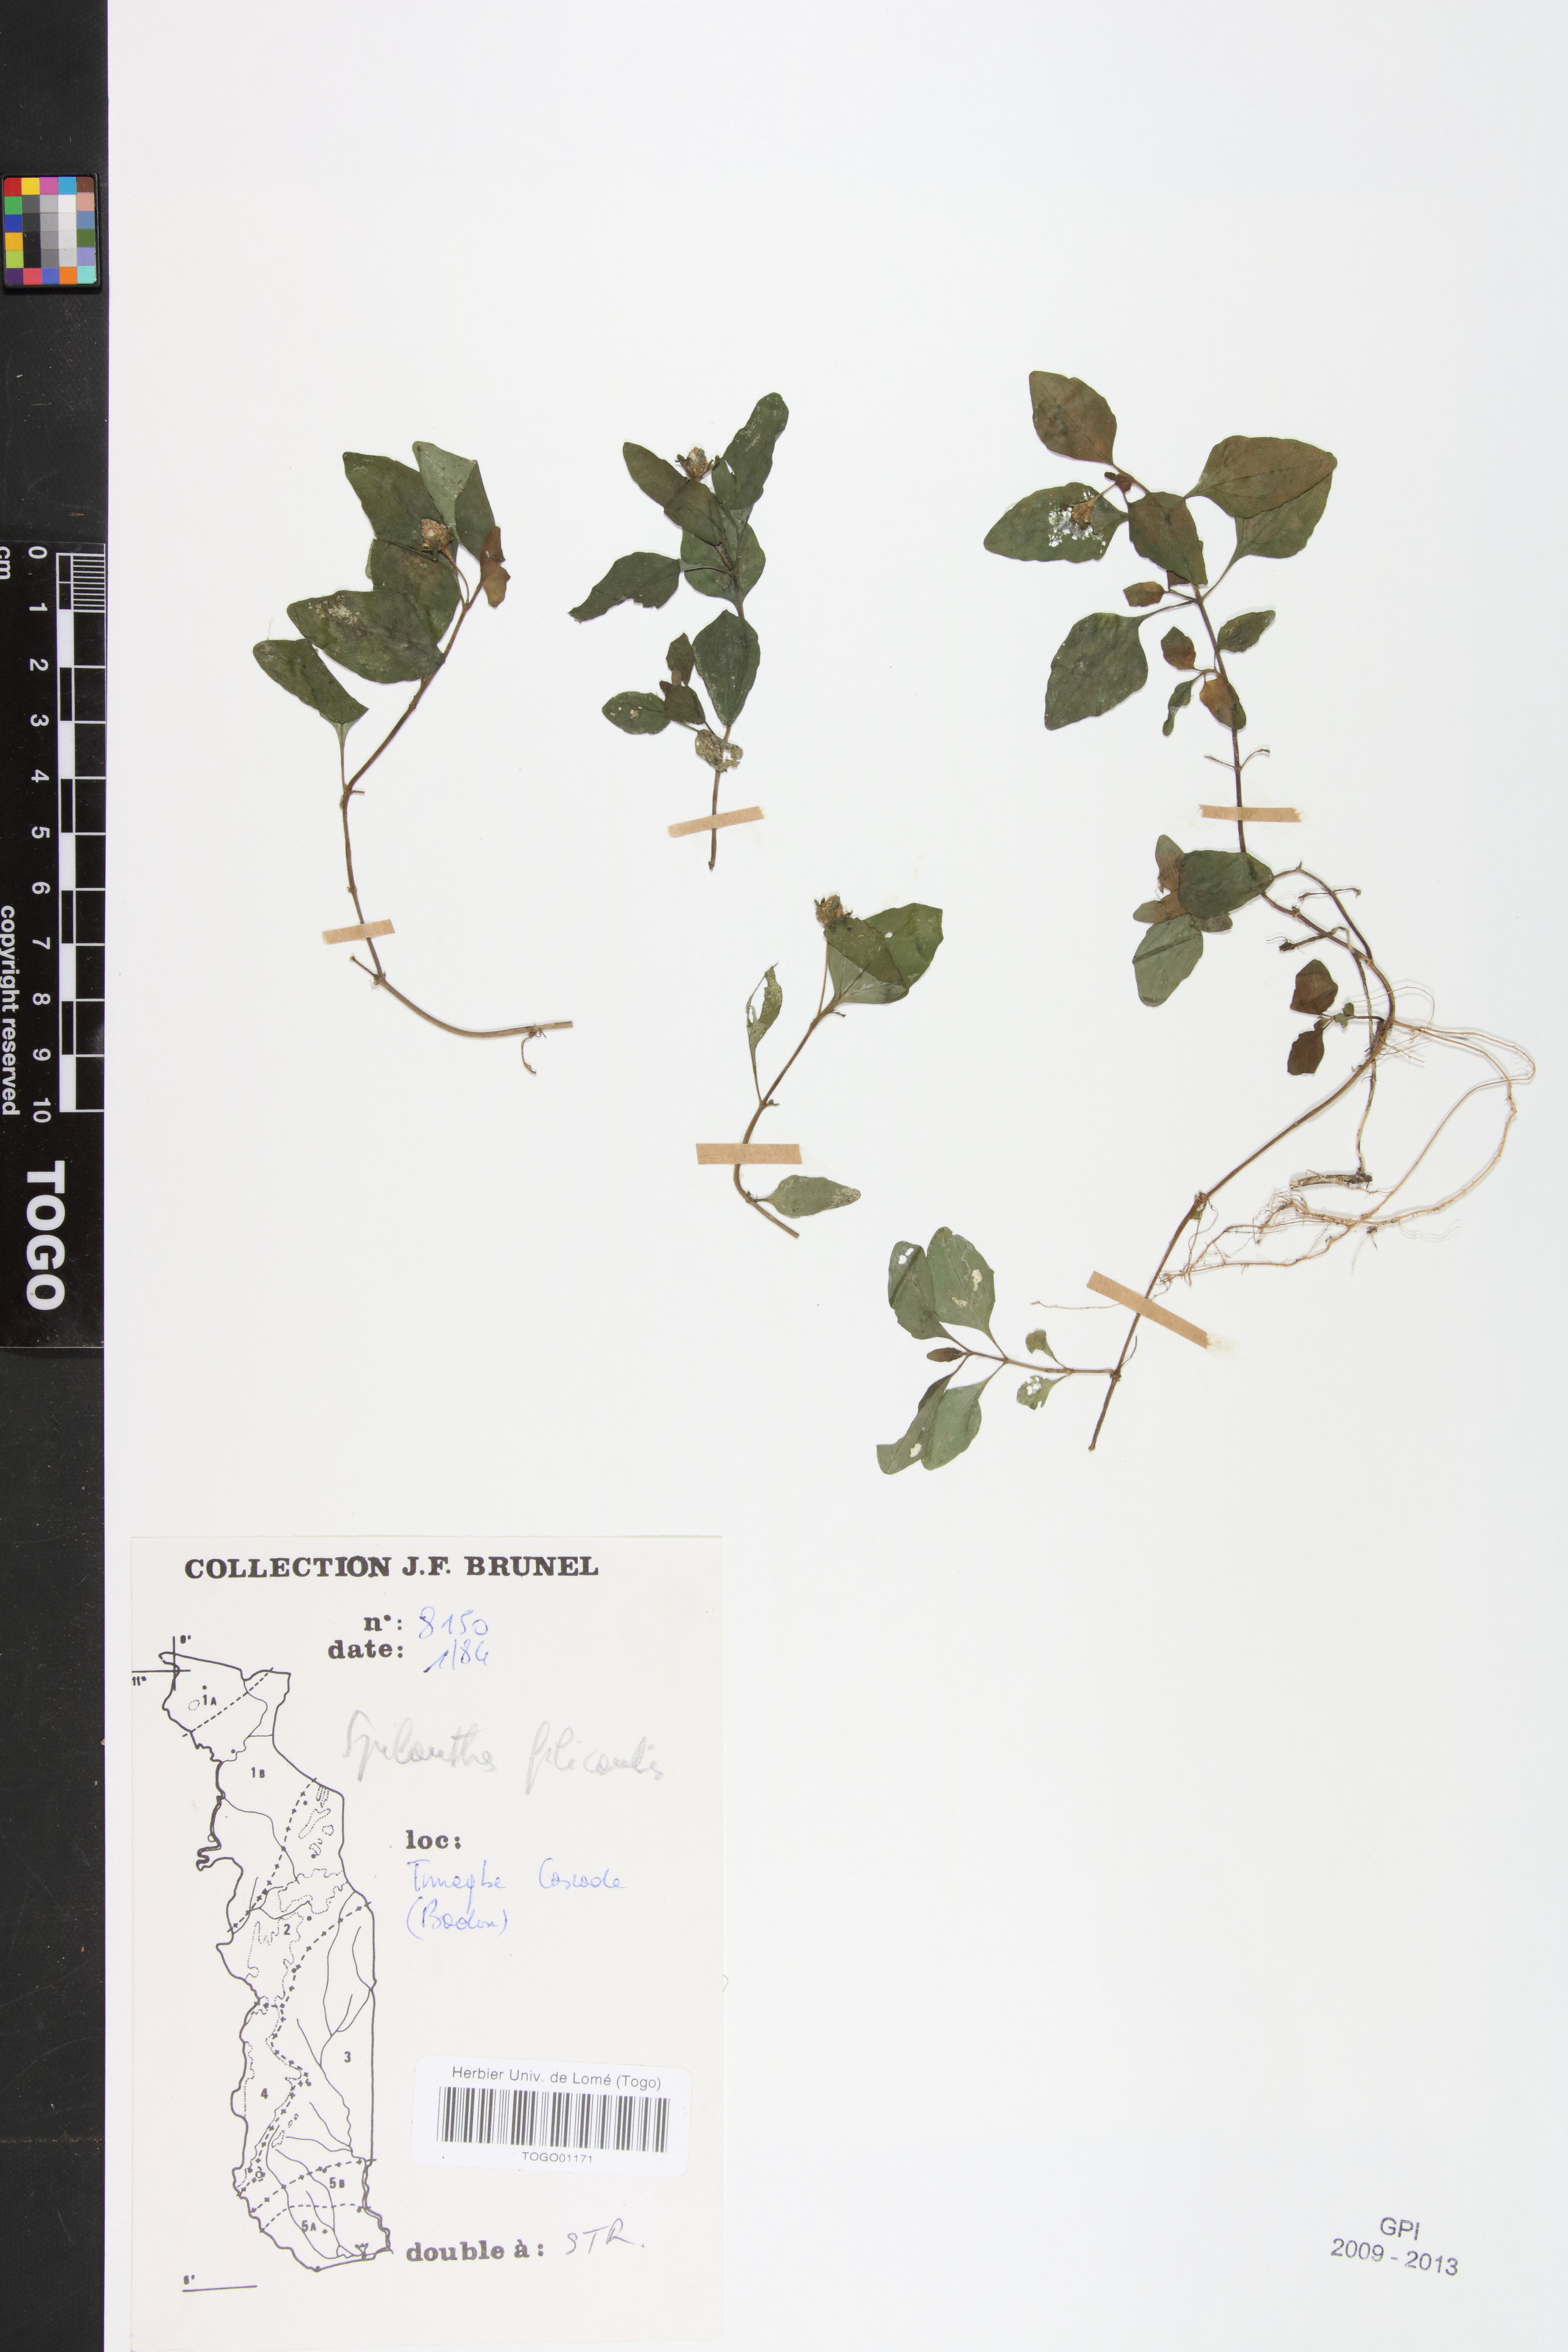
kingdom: Plantae
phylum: Tracheophyta
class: Magnoliopsida
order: Asterales
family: Asteraceae
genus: Acmella
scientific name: Acmella caulirhiza
